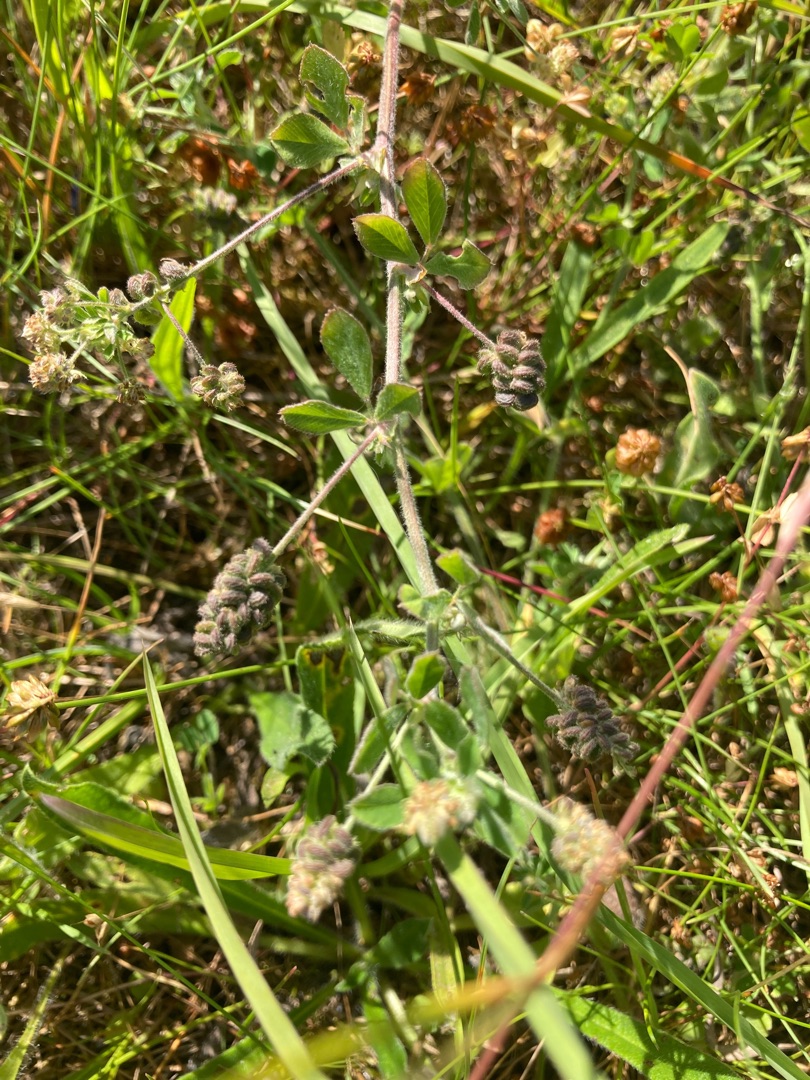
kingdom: Plantae
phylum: Tracheophyta
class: Magnoliopsida
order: Fabales
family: Fabaceae
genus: Medicago
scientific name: Medicago lupulina
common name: Humle-sneglebælg
